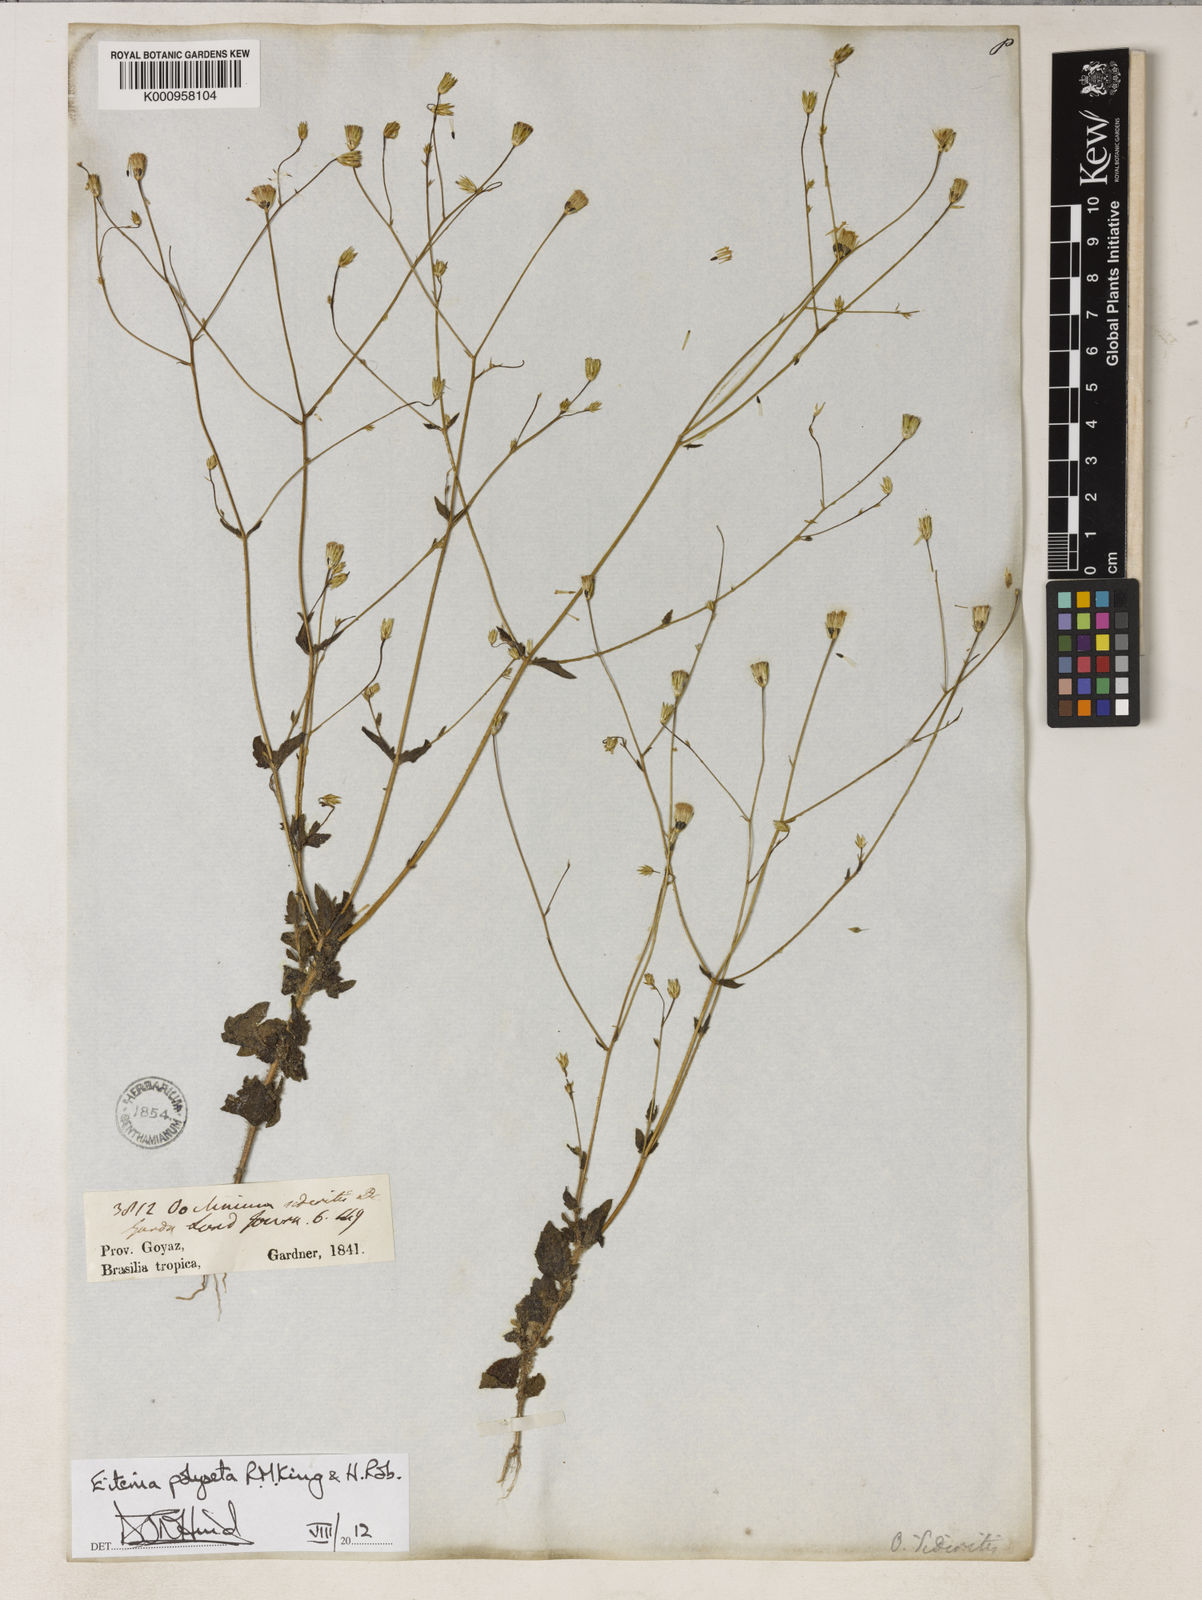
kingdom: Plantae
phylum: Tracheophyta
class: Magnoliopsida
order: Asterales
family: Asteraceae
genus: Eitenia
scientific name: Eitenia polyseta
